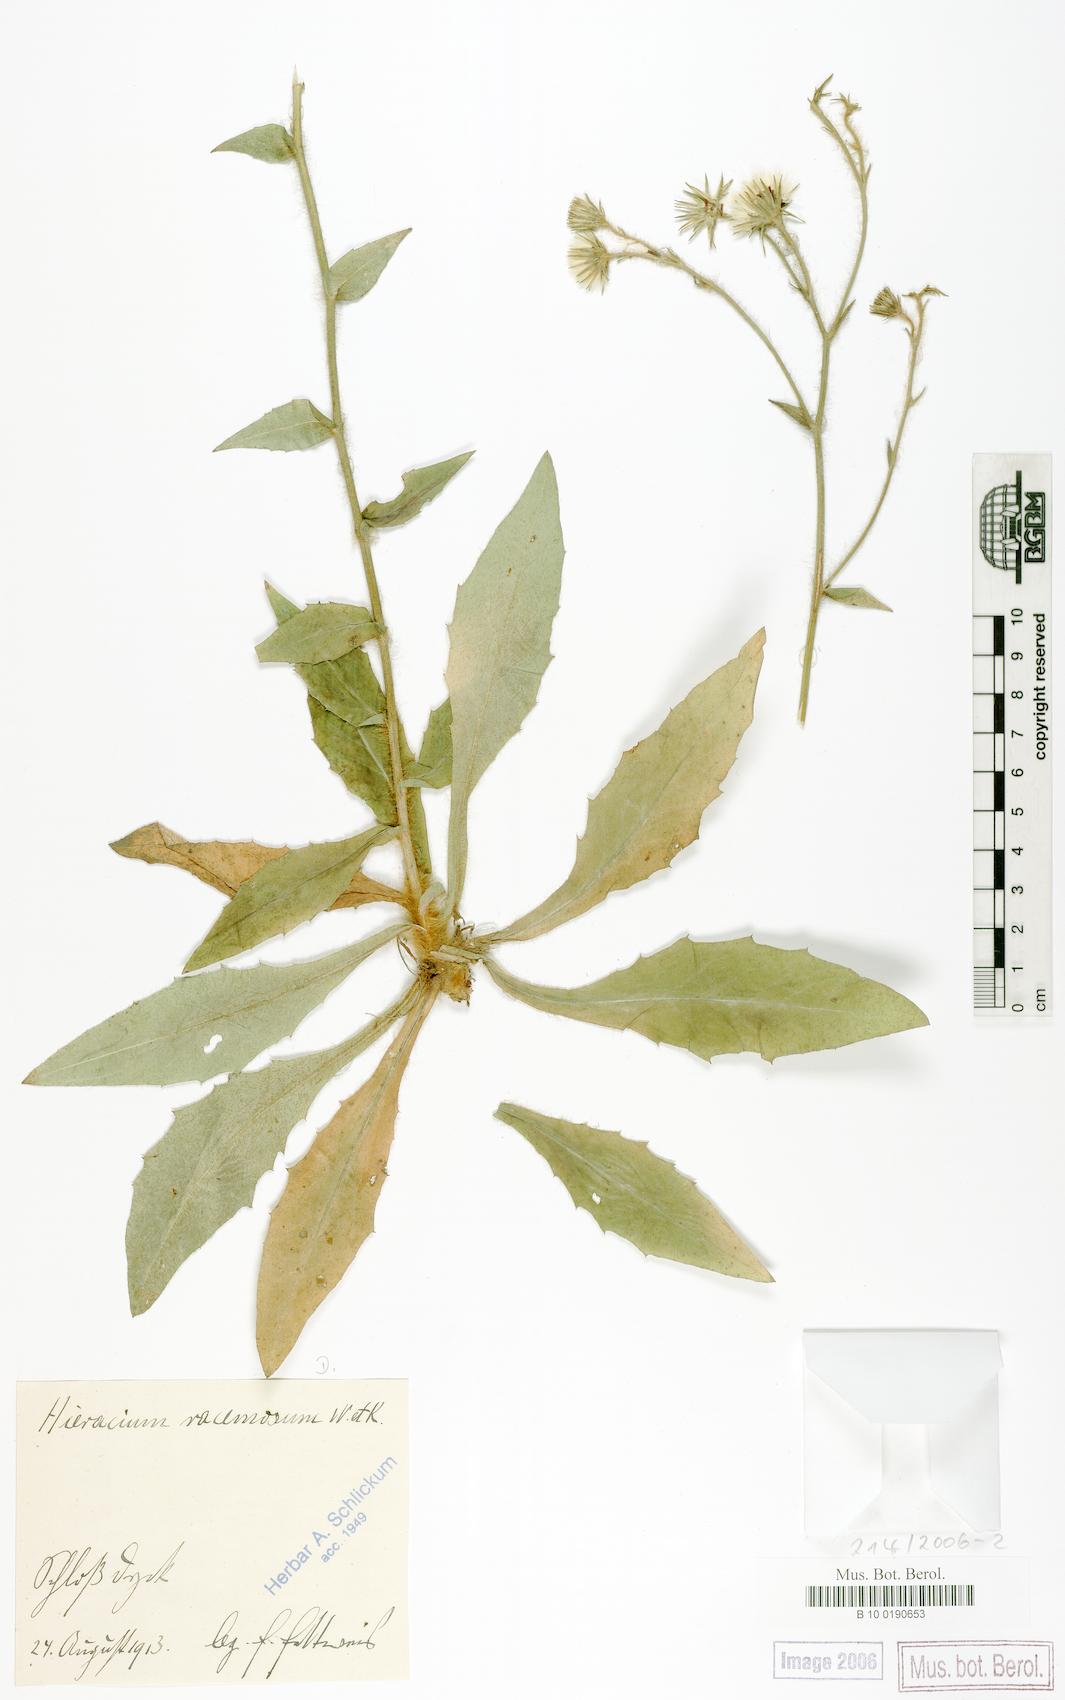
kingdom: Plantae
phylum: Tracheophyta
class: Magnoliopsida
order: Asterales
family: Asteraceae
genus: Hieracium
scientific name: Hieracium racemosum
